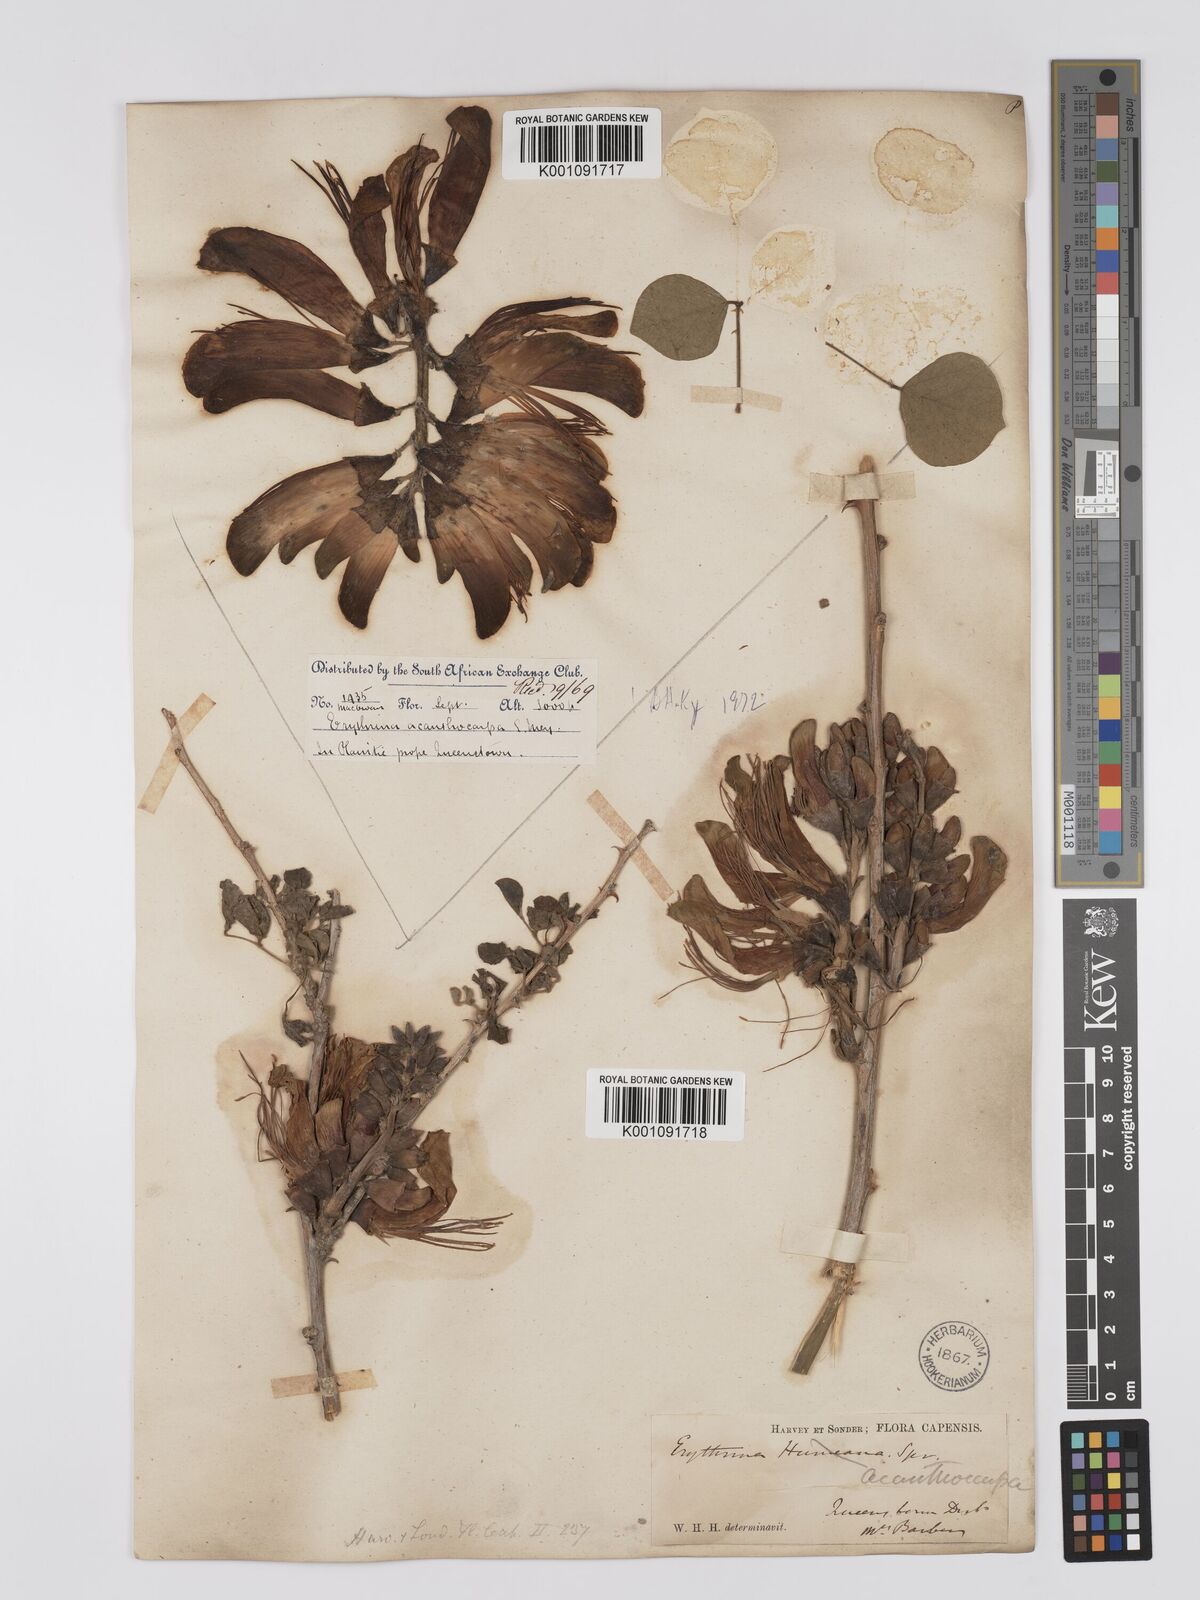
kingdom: Plantae
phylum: Tracheophyta
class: Magnoliopsida
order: Fabales
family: Fabaceae
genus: Erythrina
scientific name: Erythrina acanthocarpa
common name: Thorny coraltree
